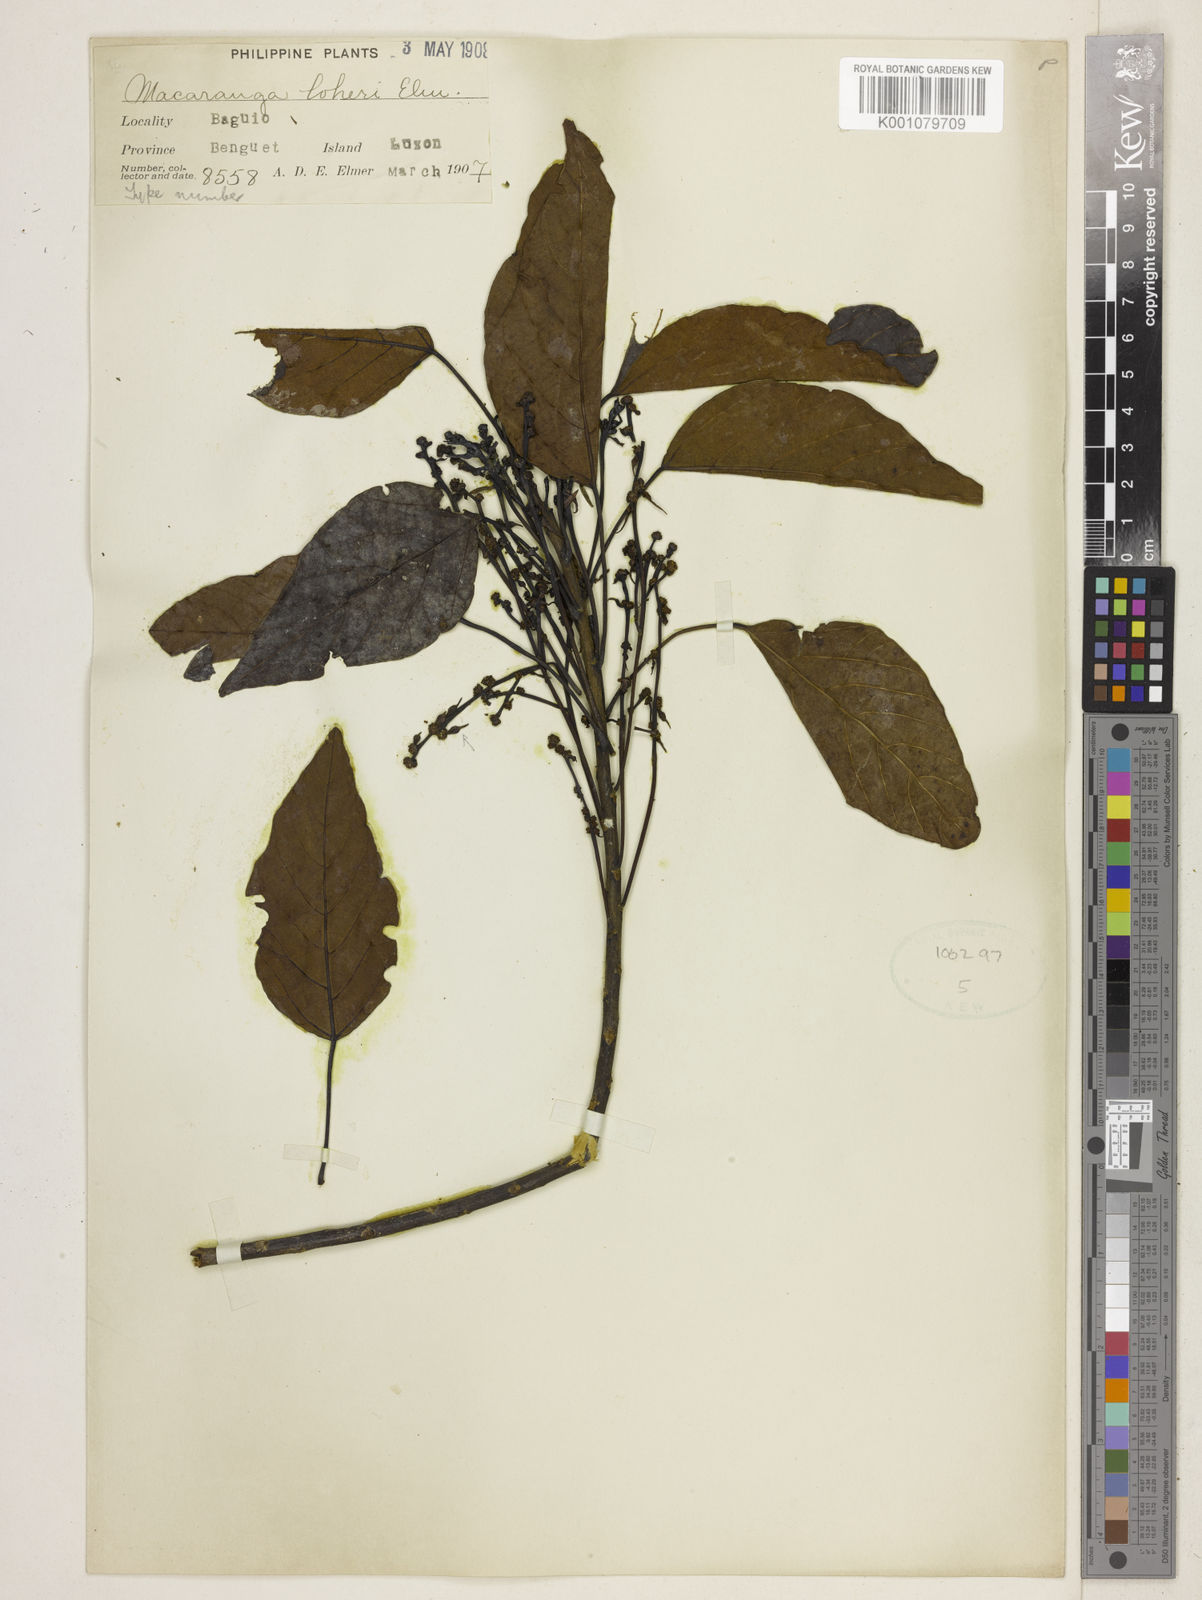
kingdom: Plantae
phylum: Tracheophyta
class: Magnoliopsida
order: Malpighiales
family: Euphorbiaceae
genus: Macaranga
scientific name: Macaranga loheri
